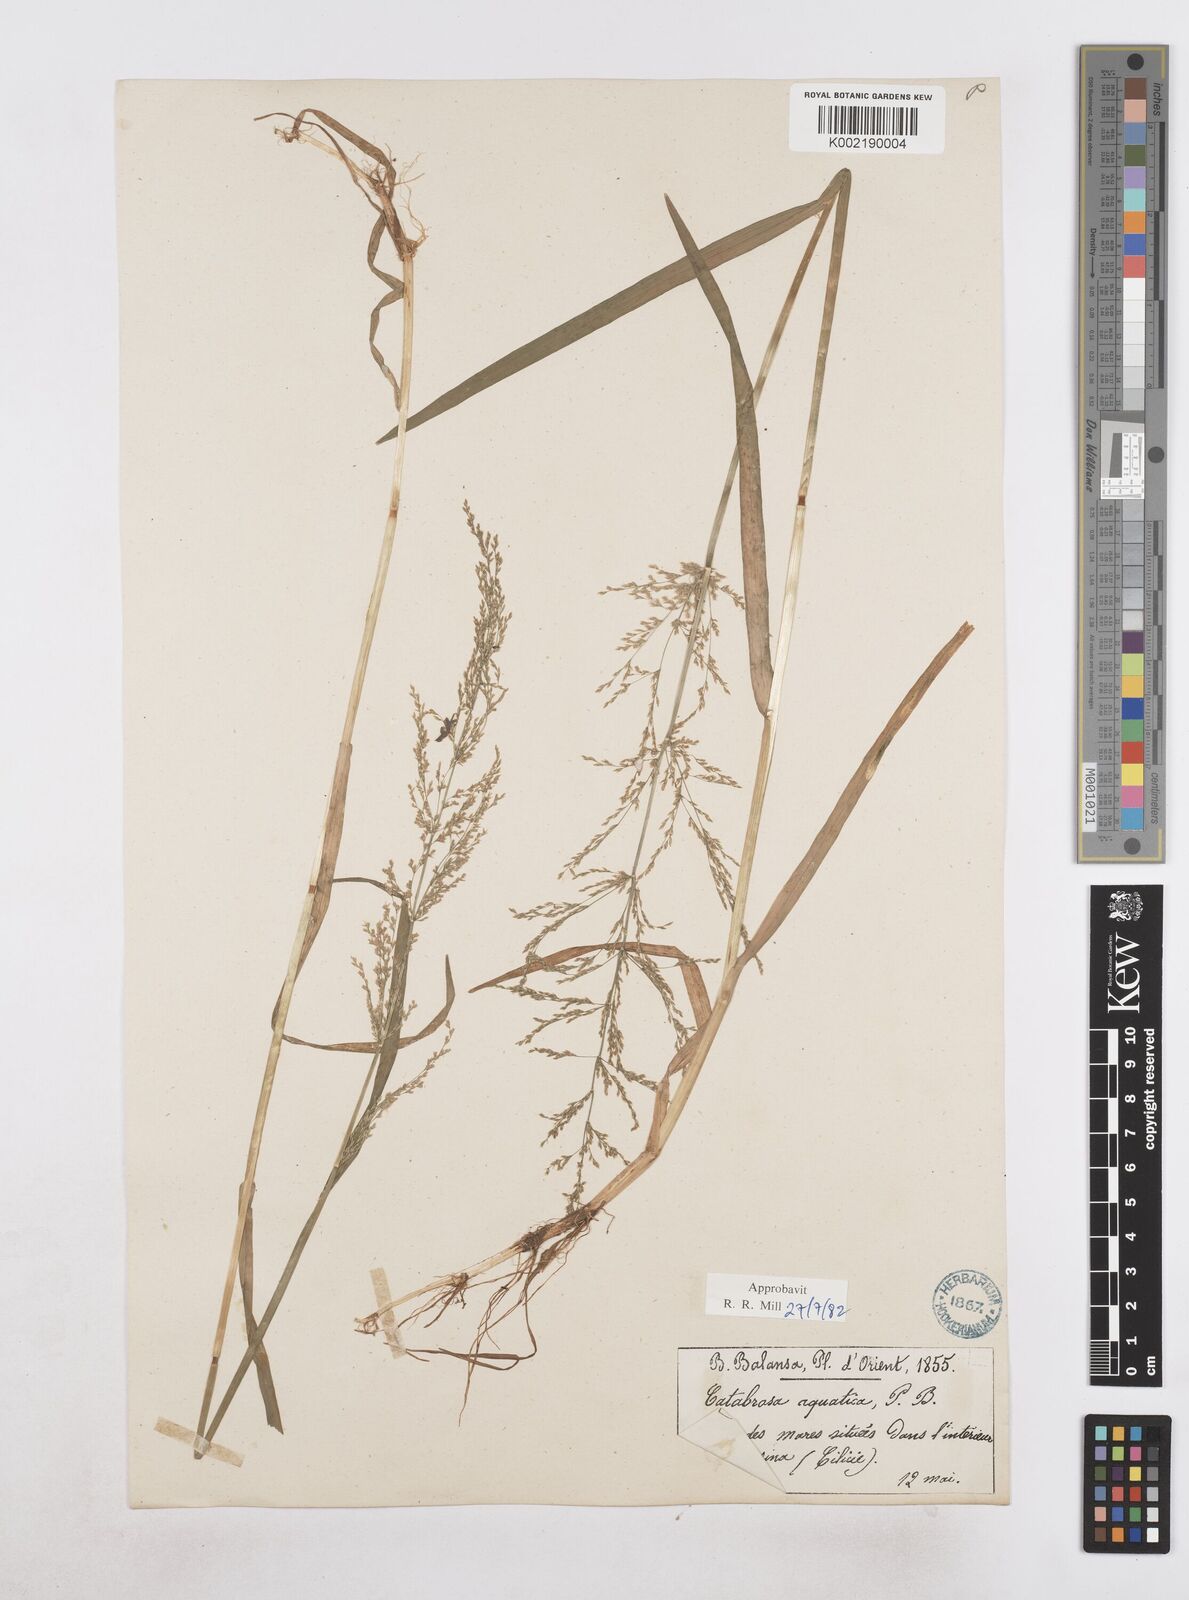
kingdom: Plantae
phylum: Tracheophyta
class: Liliopsida
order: Poales
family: Poaceae
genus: Catabrosa
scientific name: Catabrosa aquatica
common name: Whorl-grass
